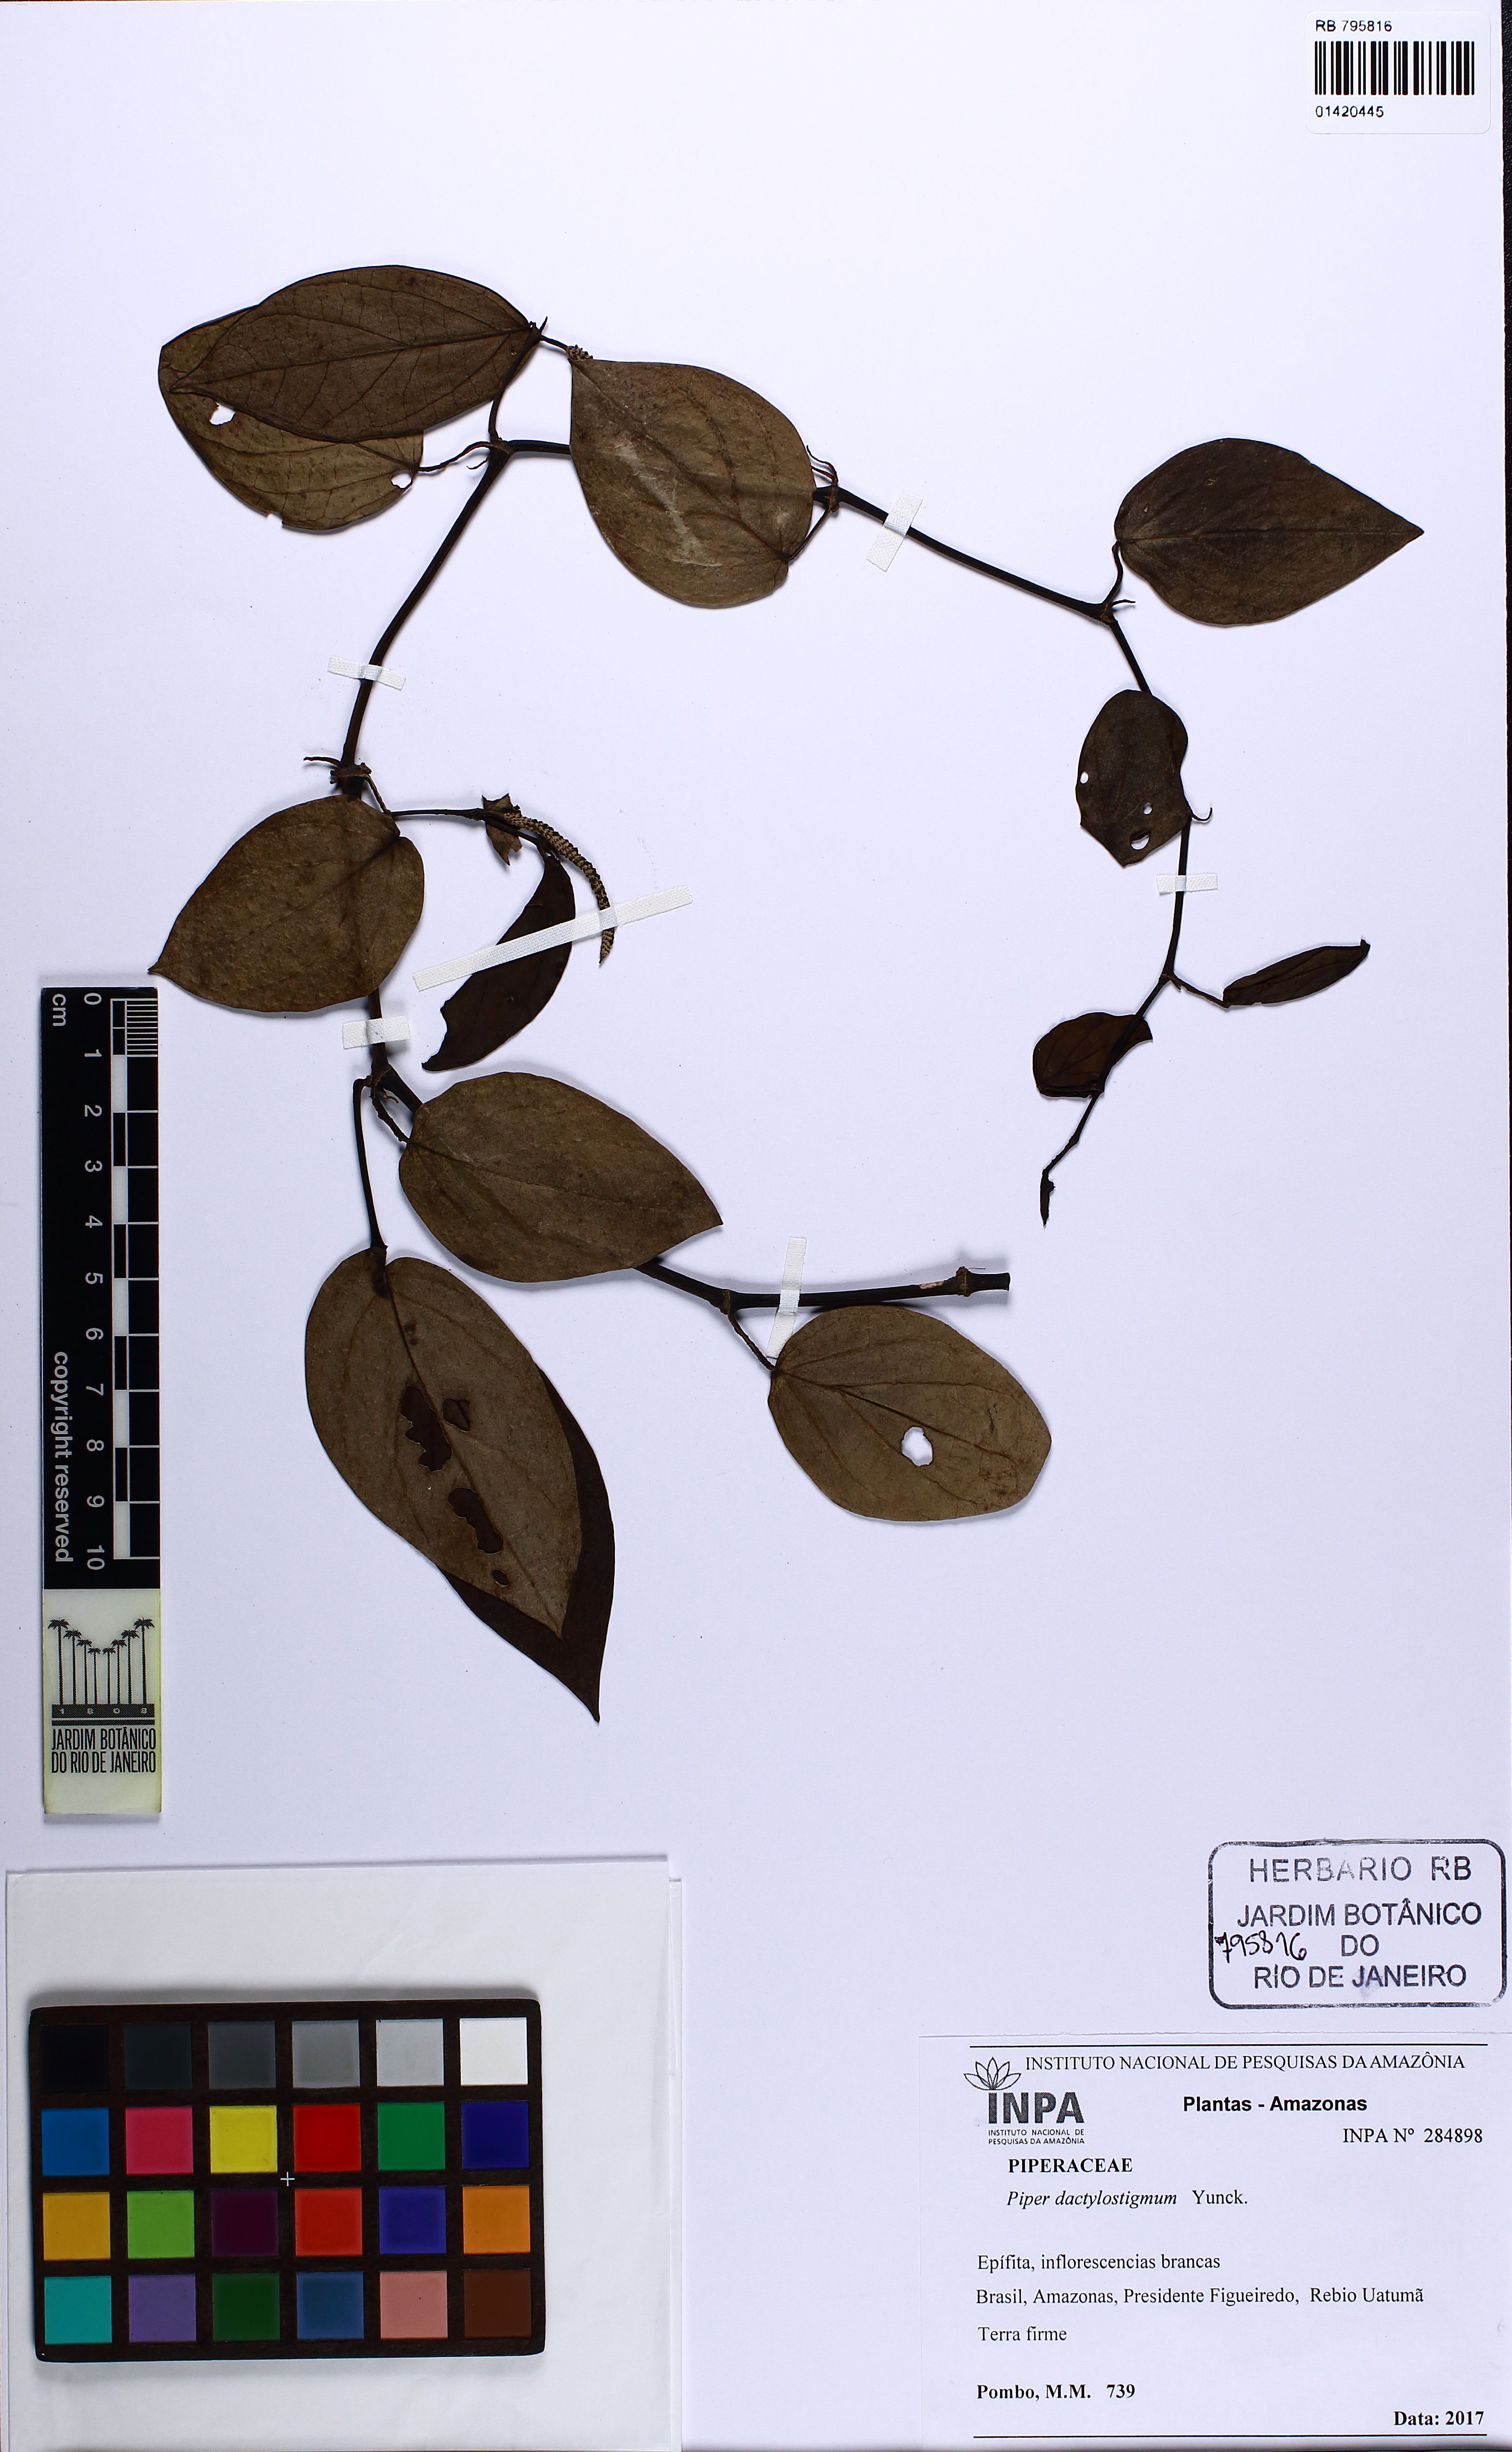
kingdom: Plantae
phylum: Tracheophyta
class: Magnoliopsida
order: Piperales
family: Piperaceae
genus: Piper
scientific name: Piper dactylostigmum
